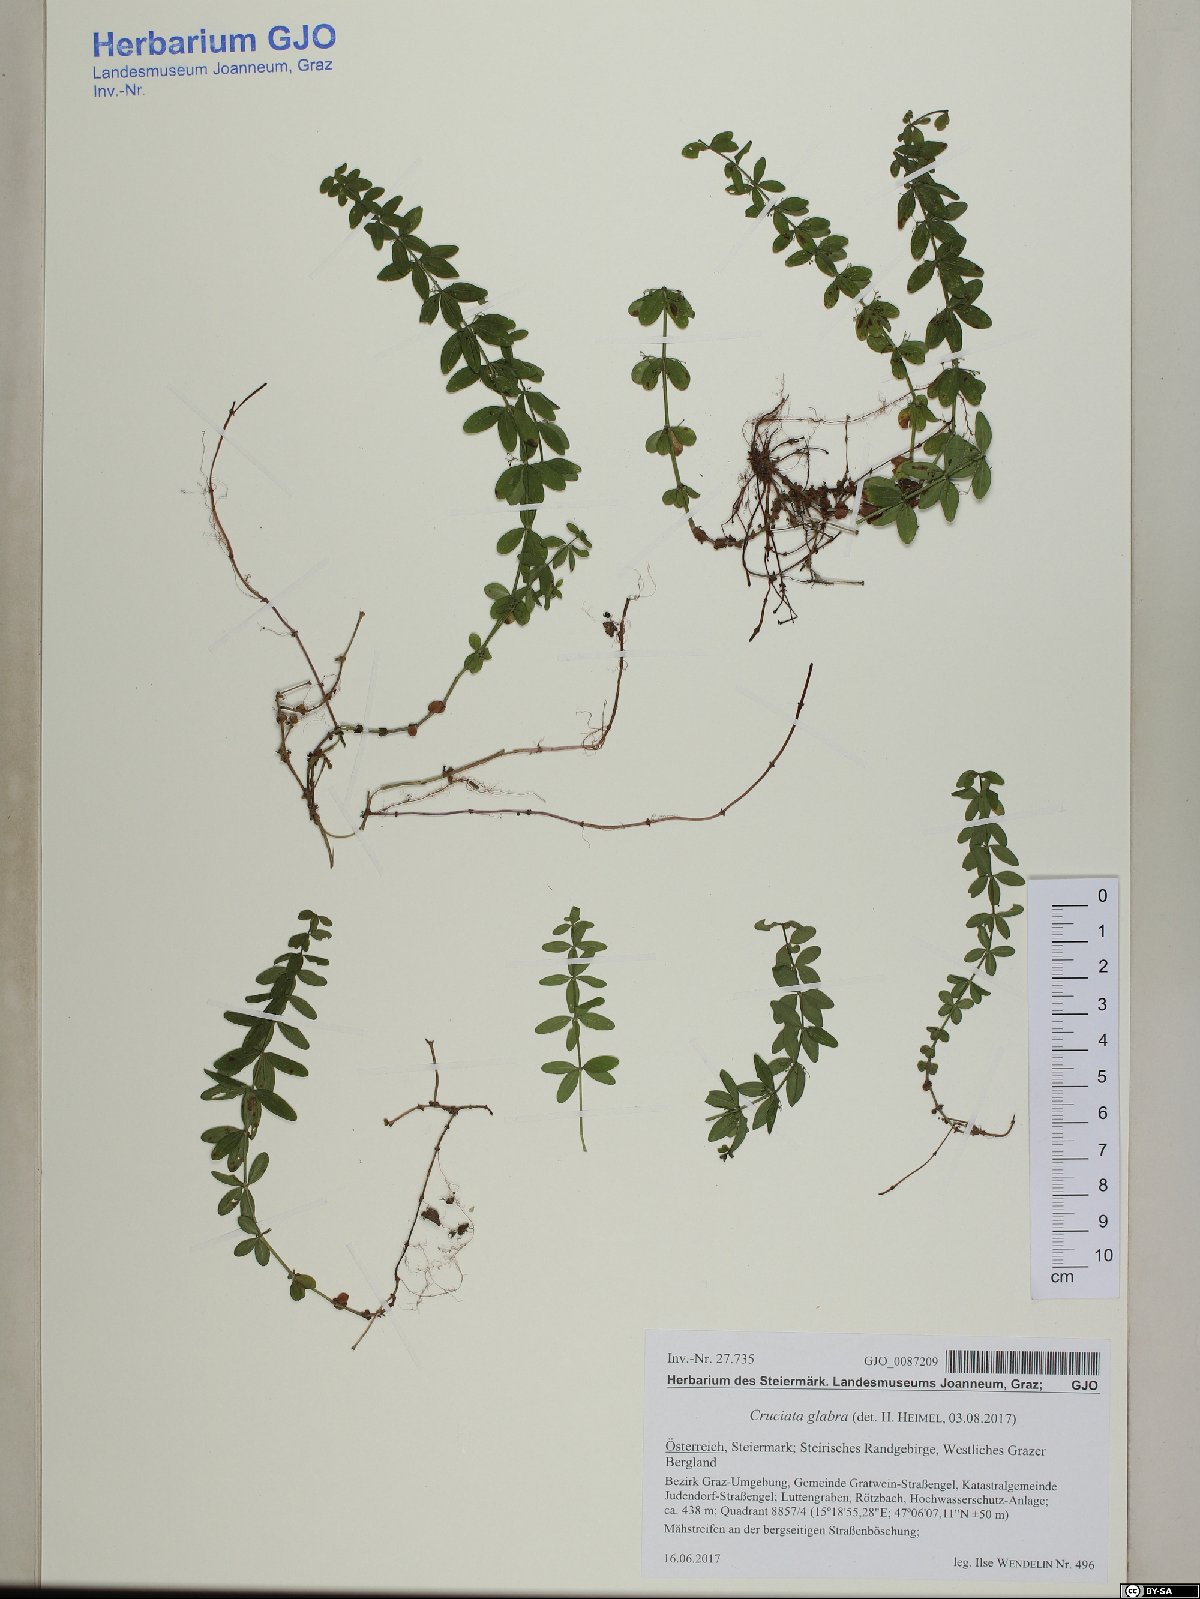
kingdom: Plantae
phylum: Tracheophyta
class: Magnoliopsida
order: Gentianales
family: Rubiaceae
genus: Cruciata
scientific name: Cruciata glabra
